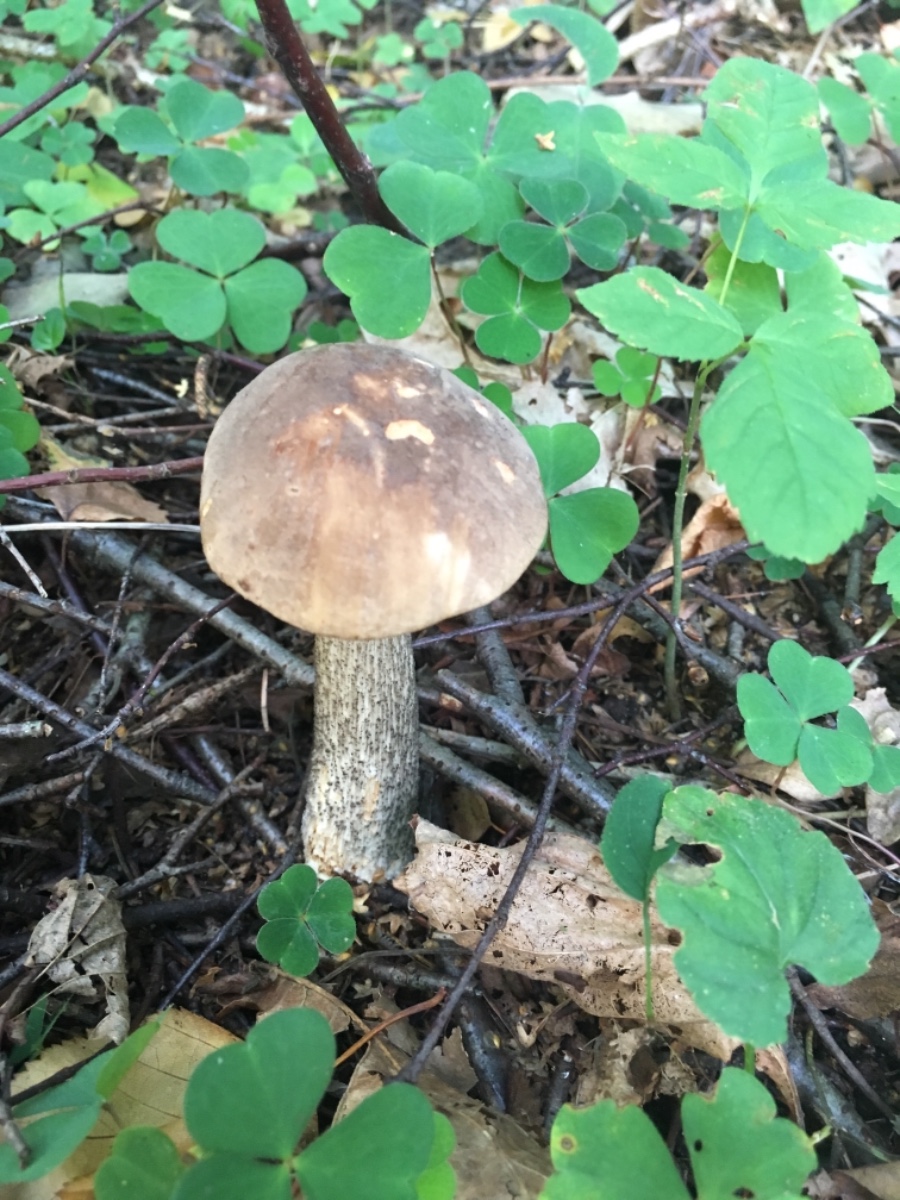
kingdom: Fungi
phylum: Basidiomycota
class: Agaricomycetes
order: Boletales
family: Boletaceae
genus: Leccinum
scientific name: Leccinum scabrum
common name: brun skælrørhat
